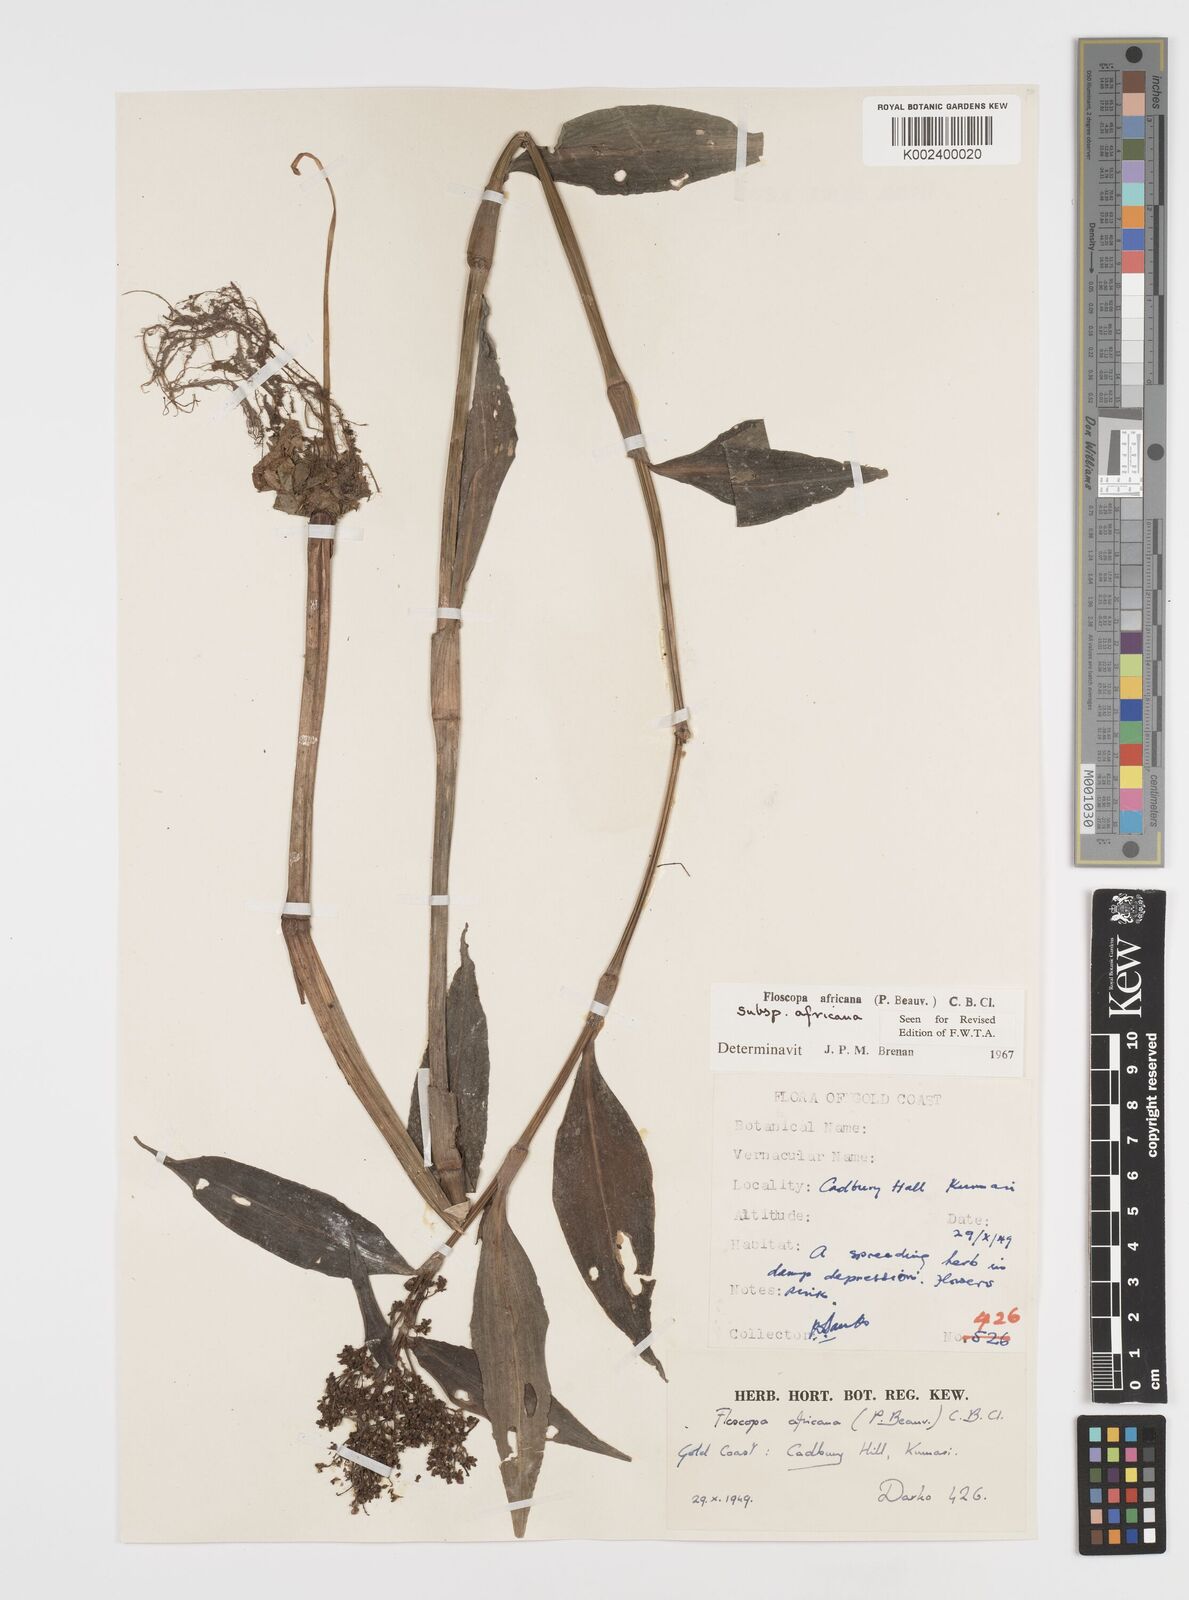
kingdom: Plantae
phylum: Tracheophyta
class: Liliopsida
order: Commelinales
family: Commelinaceae
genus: Floscopa
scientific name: Floscopa africana
